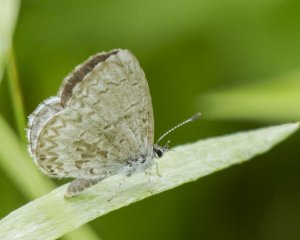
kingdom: Animalia
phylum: Arthropoda
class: Insecta
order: Lepidoptera
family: Lycaenidae
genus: Cyaniris
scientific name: Cyaniris neglecta
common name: Summer Azure
